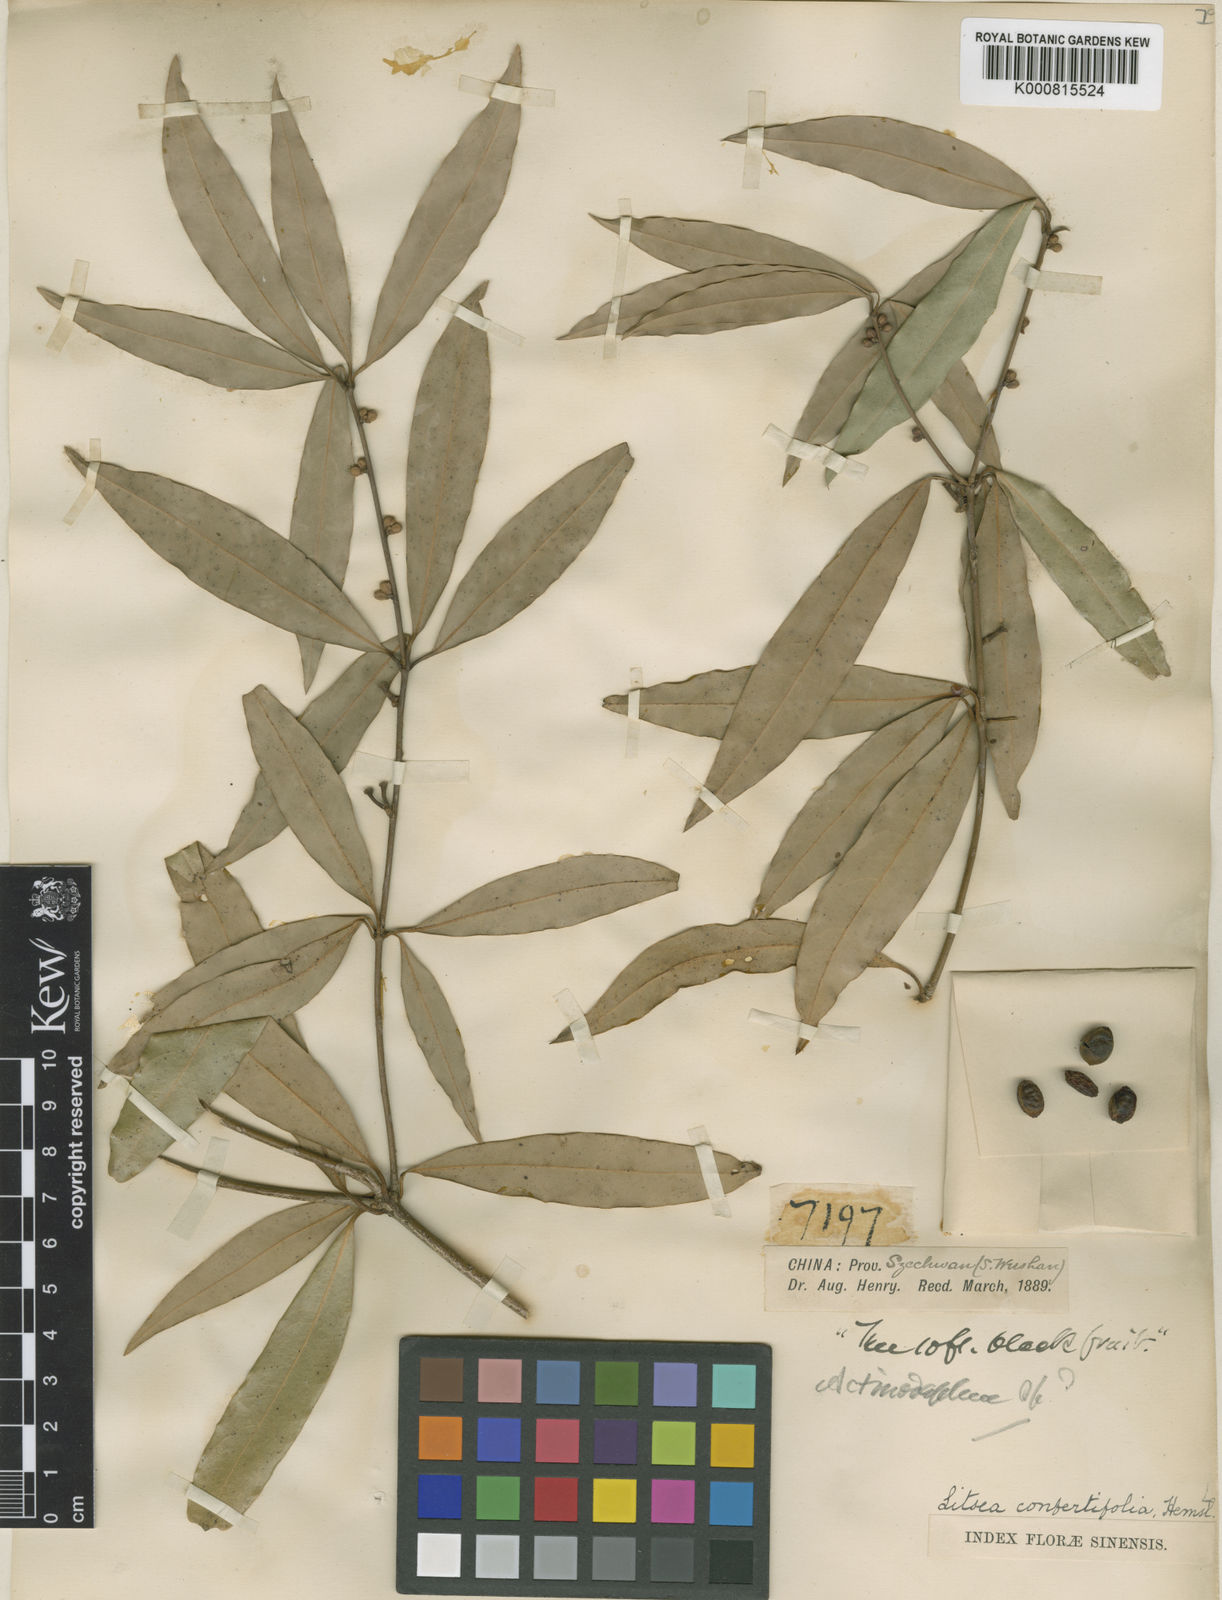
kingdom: Plantae
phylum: Tracheophyta
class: Magnoliopsida
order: Laurales
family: Lauraceae
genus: Neolitsea
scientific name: Neolitsea confertifolia
